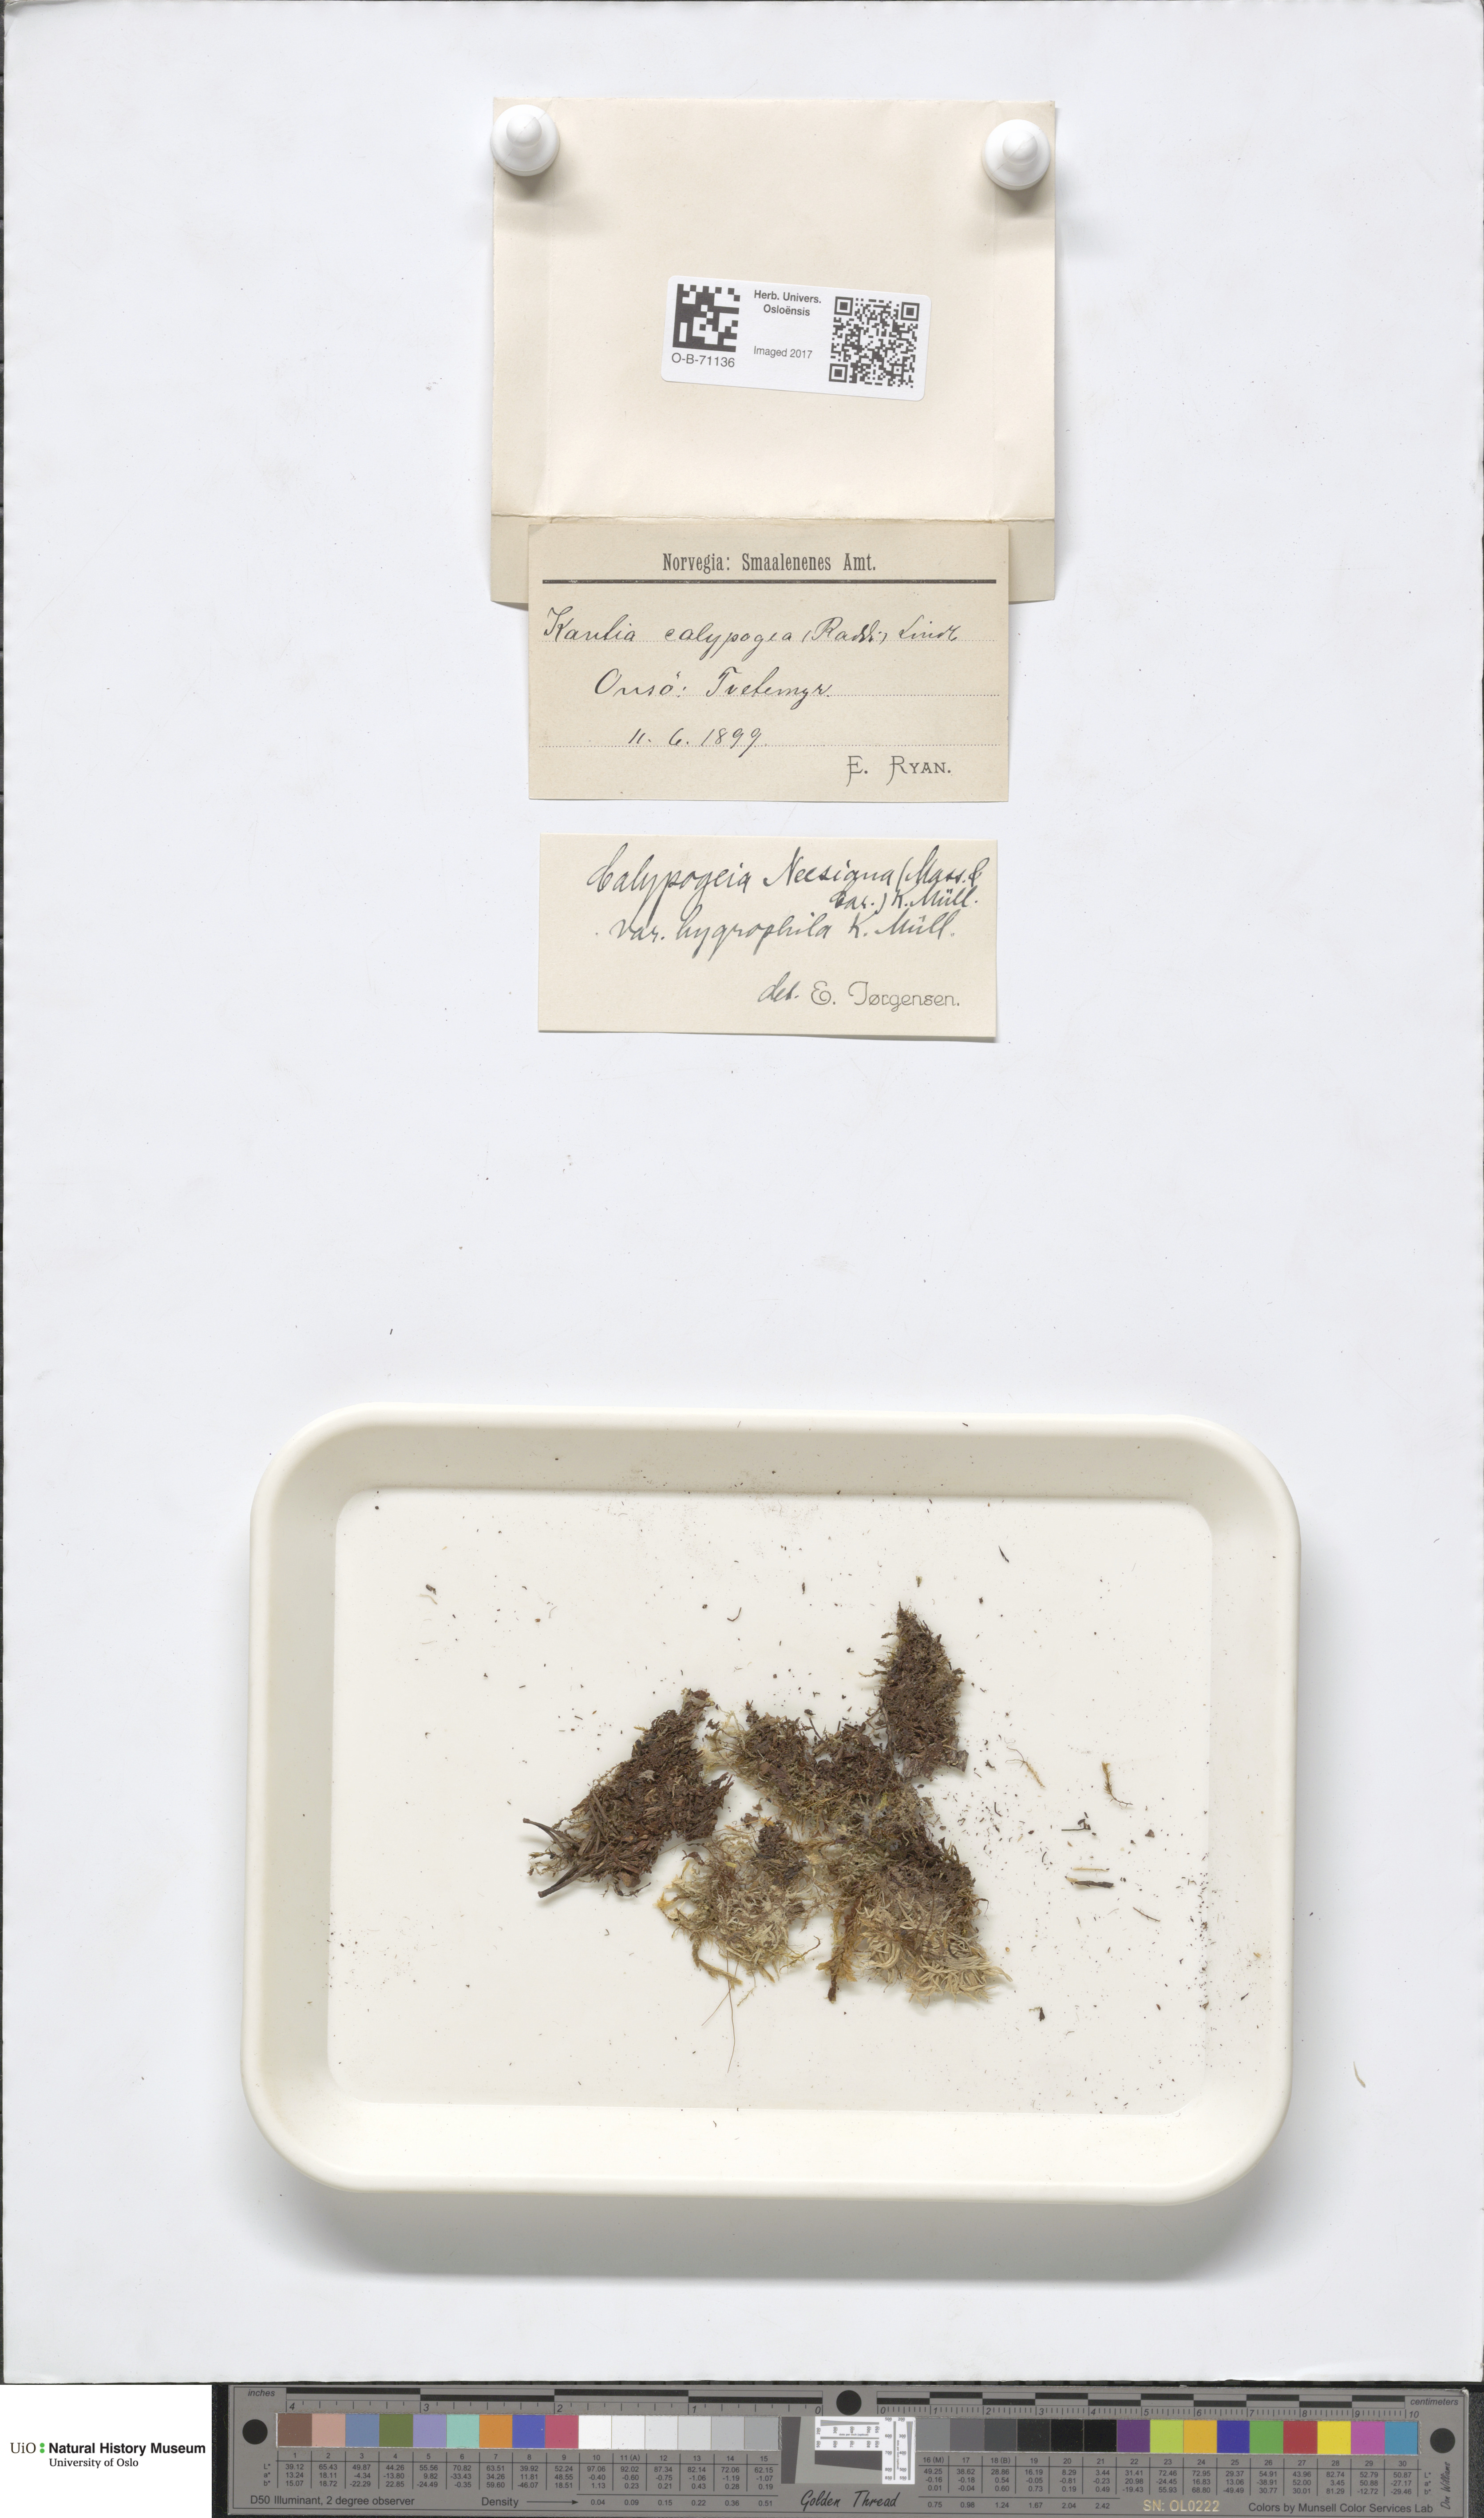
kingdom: Plantae
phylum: Marchantiophyta
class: Jungermanniopsida
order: Jungermanniales
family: Calypogeiaceae
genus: Calypogeia
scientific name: Calypogeia neesiana
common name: Nees  pouchwort
